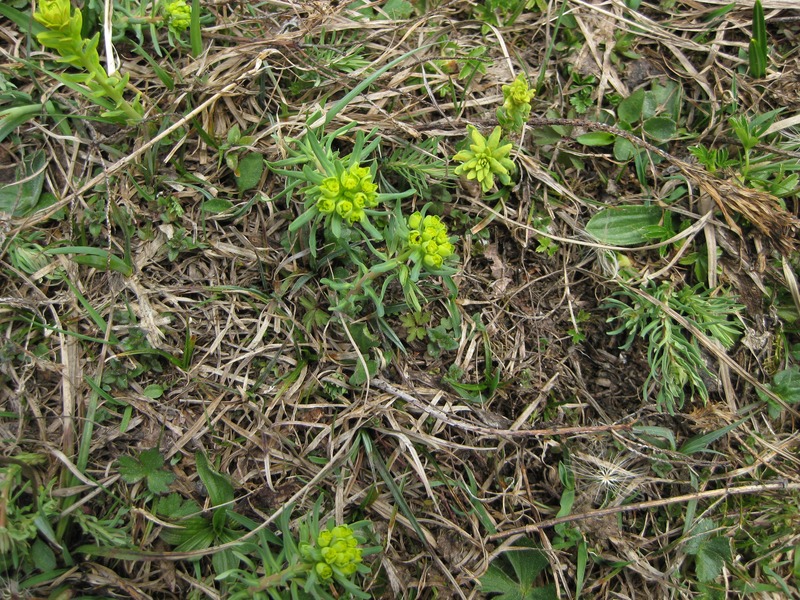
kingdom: Fungi
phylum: Basidiomycota
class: Ustilaginomycetes
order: Urocystidales
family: Urocystidaceae
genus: Urocystis
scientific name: Urocystis ficariae
